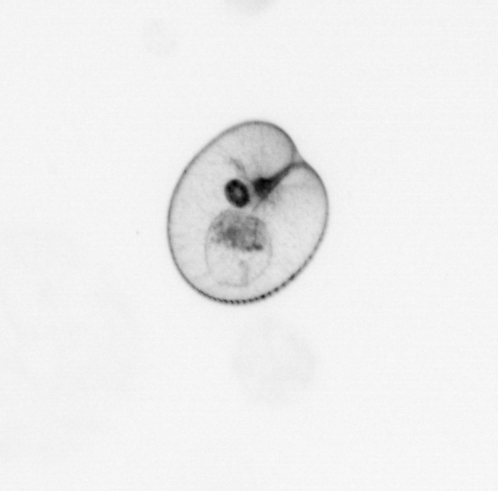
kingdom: Chromista
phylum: Myzozoa
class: Dinophyceae
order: Noctilucales
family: Noctilucaceae
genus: Noctiluca
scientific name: Noctiluca scintillans
